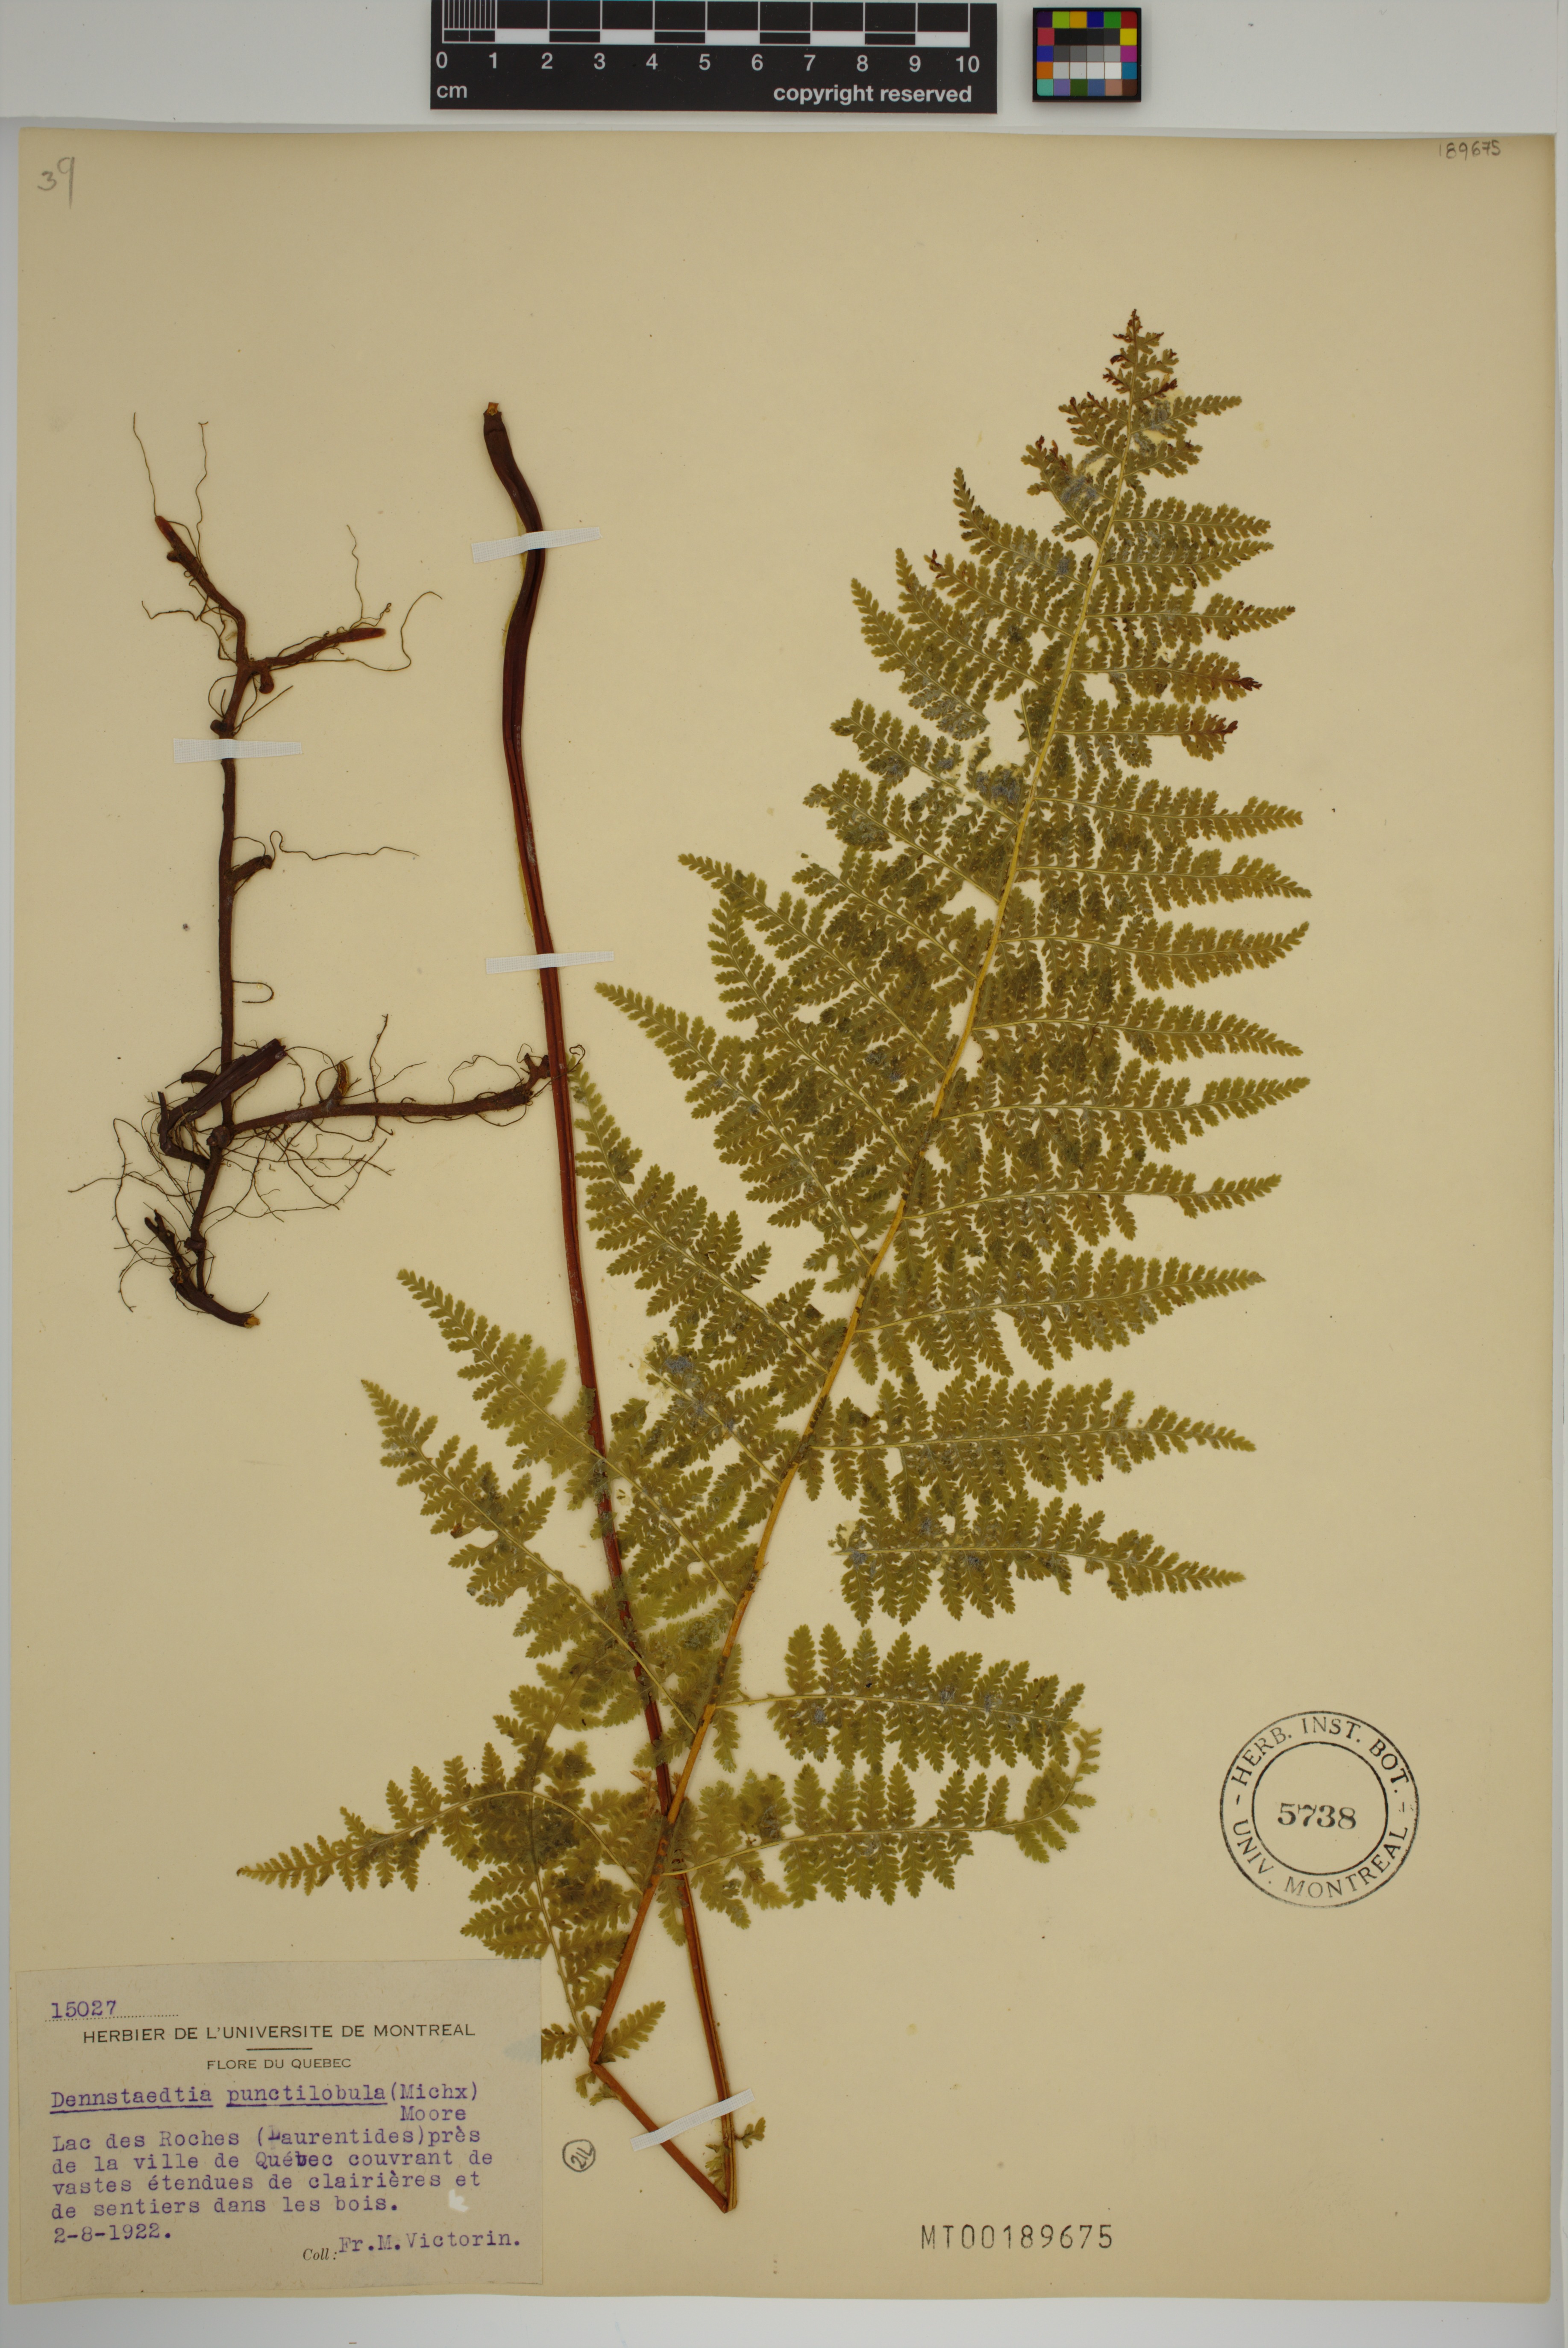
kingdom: Plantae
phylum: Tracheophyta
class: Polypodiopsida
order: Polypodiales
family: Dennstaedtiaceae
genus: Sitobolium
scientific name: Sitobolium punctilobum
